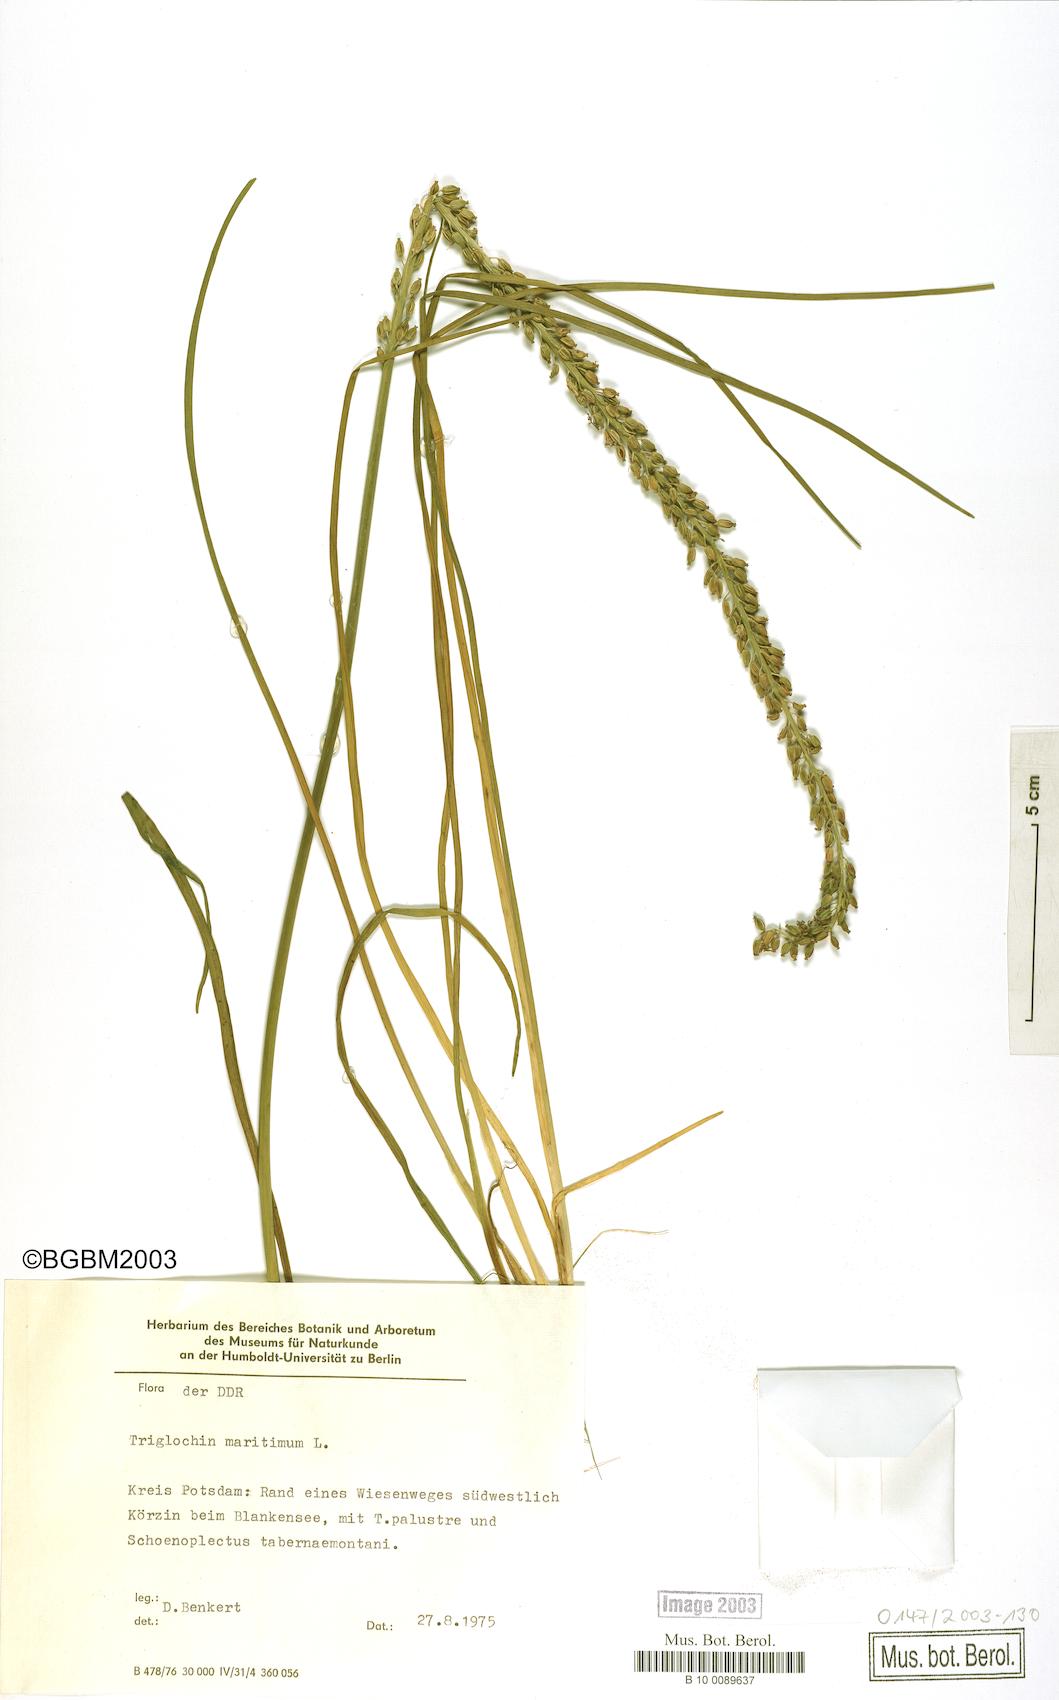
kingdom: Plantae
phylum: Tracheophyta
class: Liliopsida
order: Alismatales
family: Juncaginaceae
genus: Triglochin
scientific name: Triglochin maritima
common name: Sea arrowgrass
